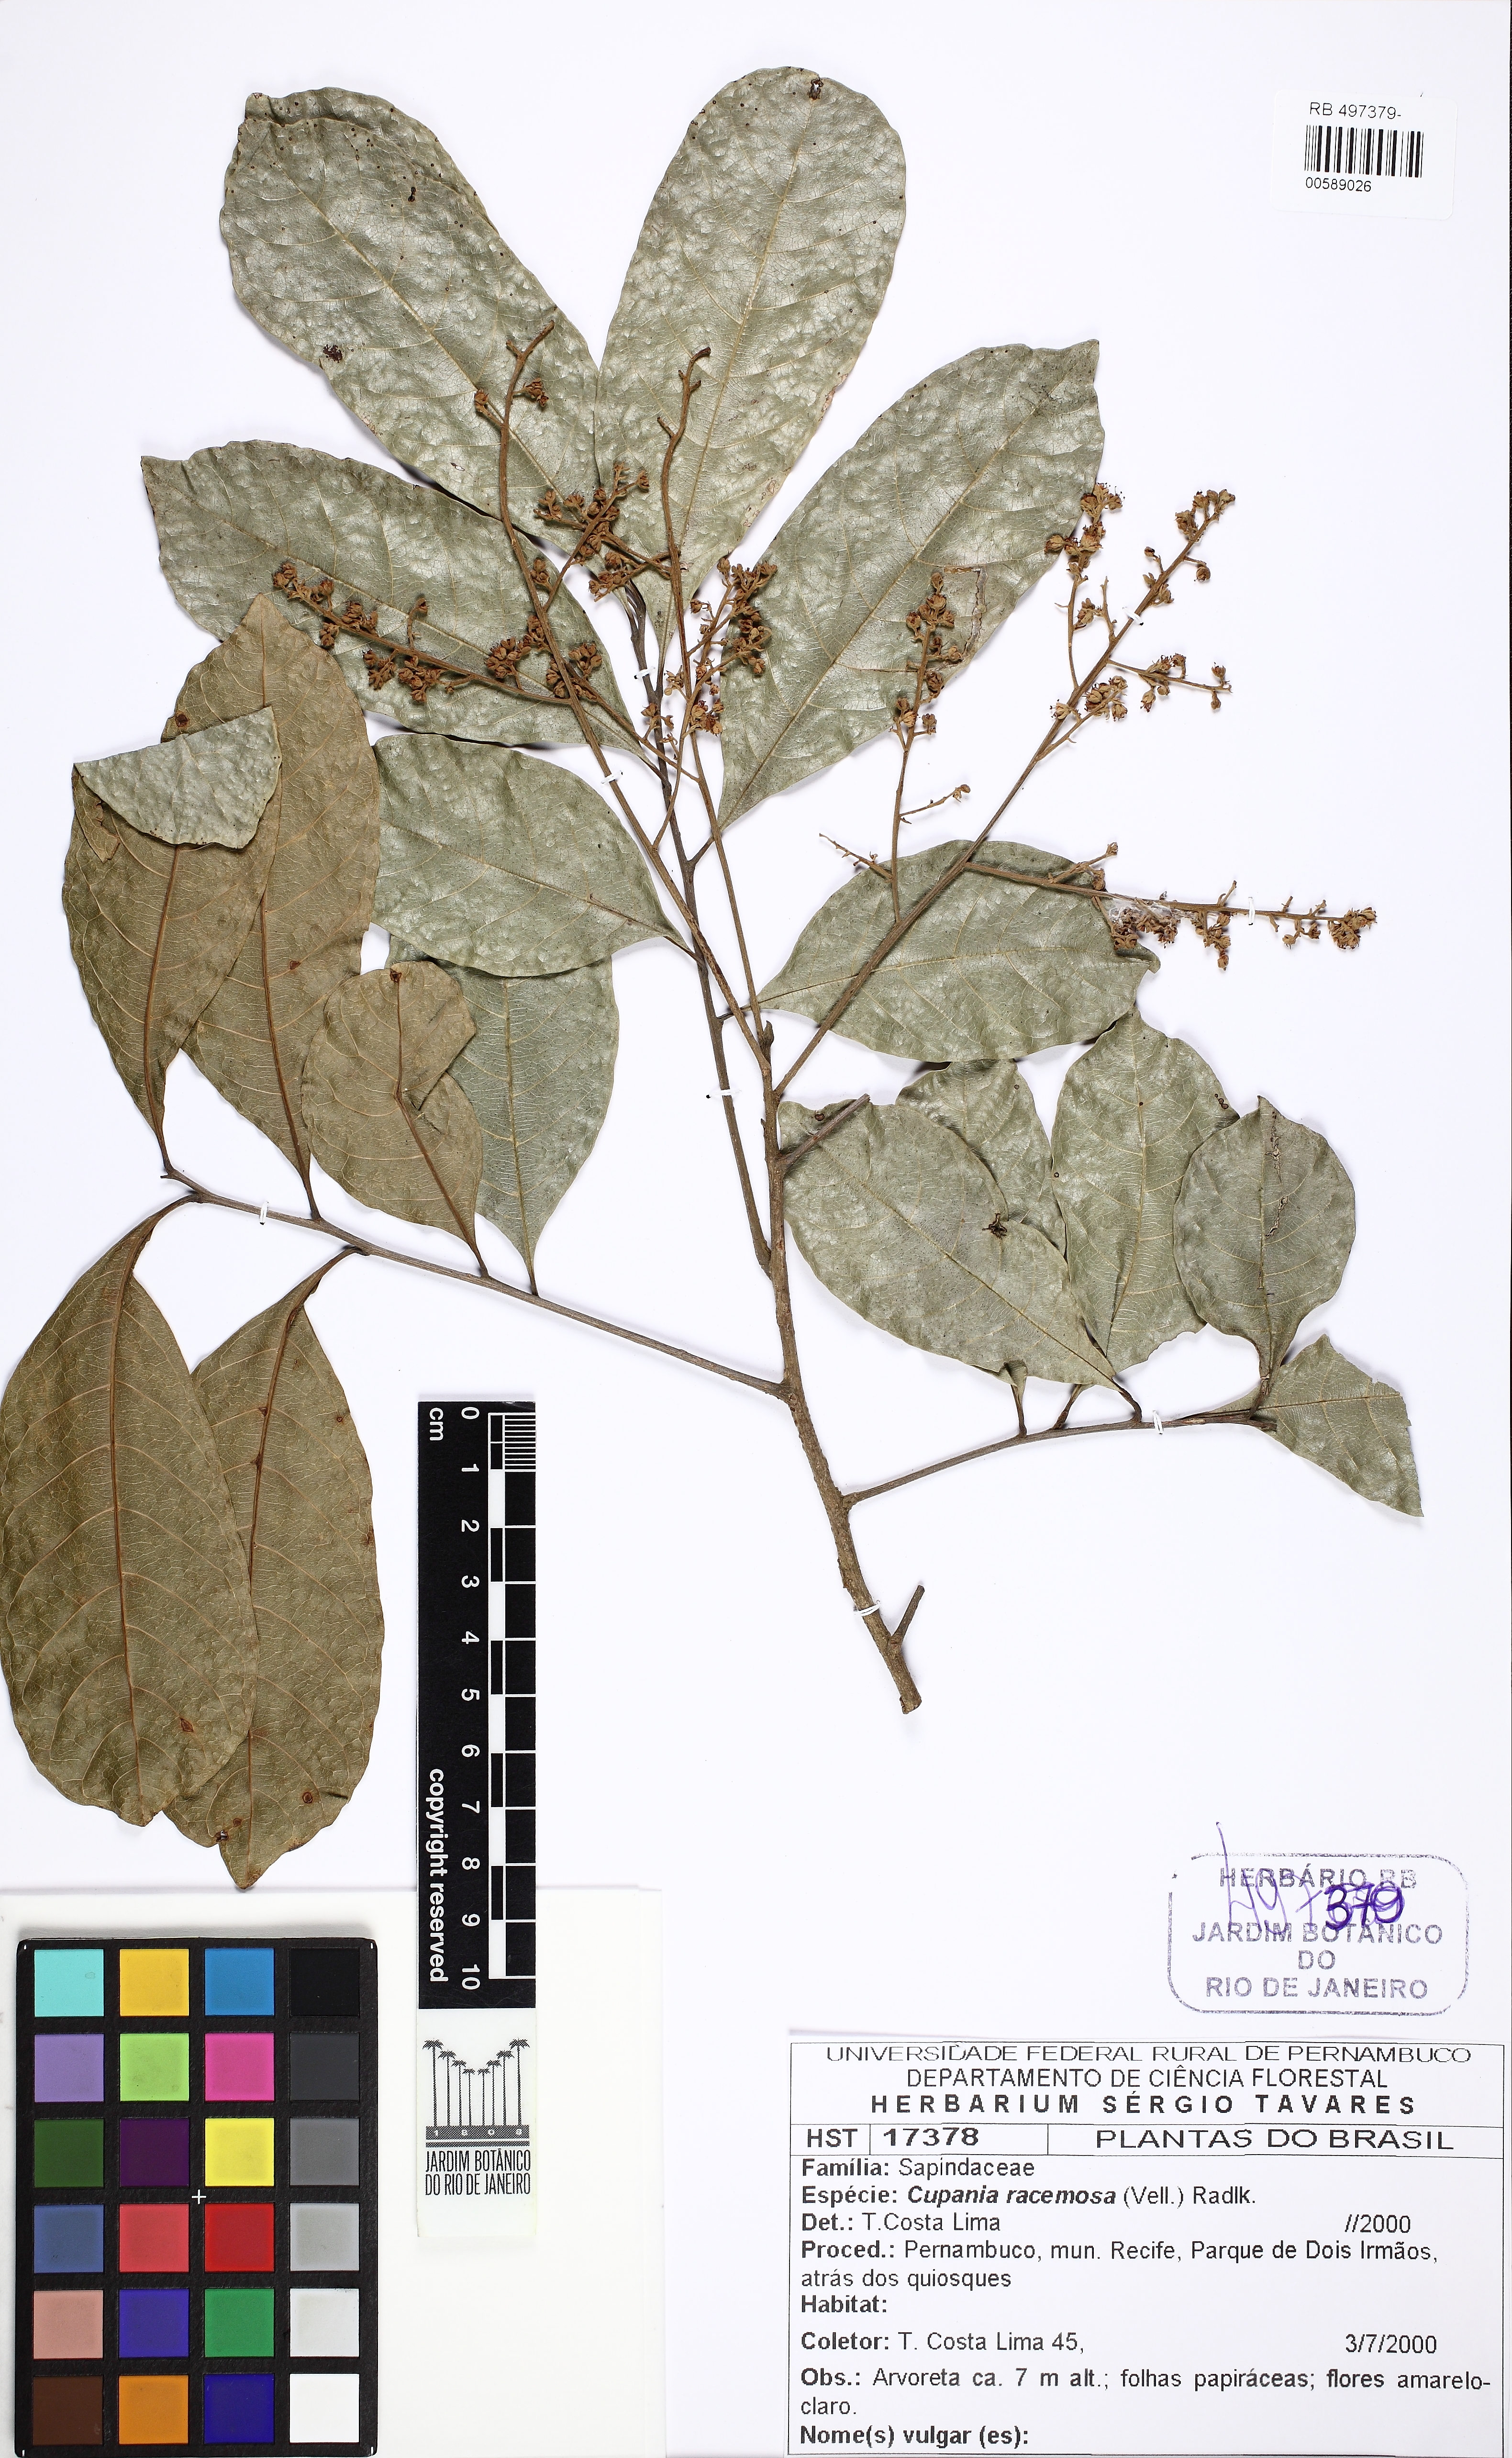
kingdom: Plantae
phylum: Tracheophyta
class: Magnoliopsida
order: Sapindales
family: Sapindaceae
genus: Cupania
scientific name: Cupania racemosa
